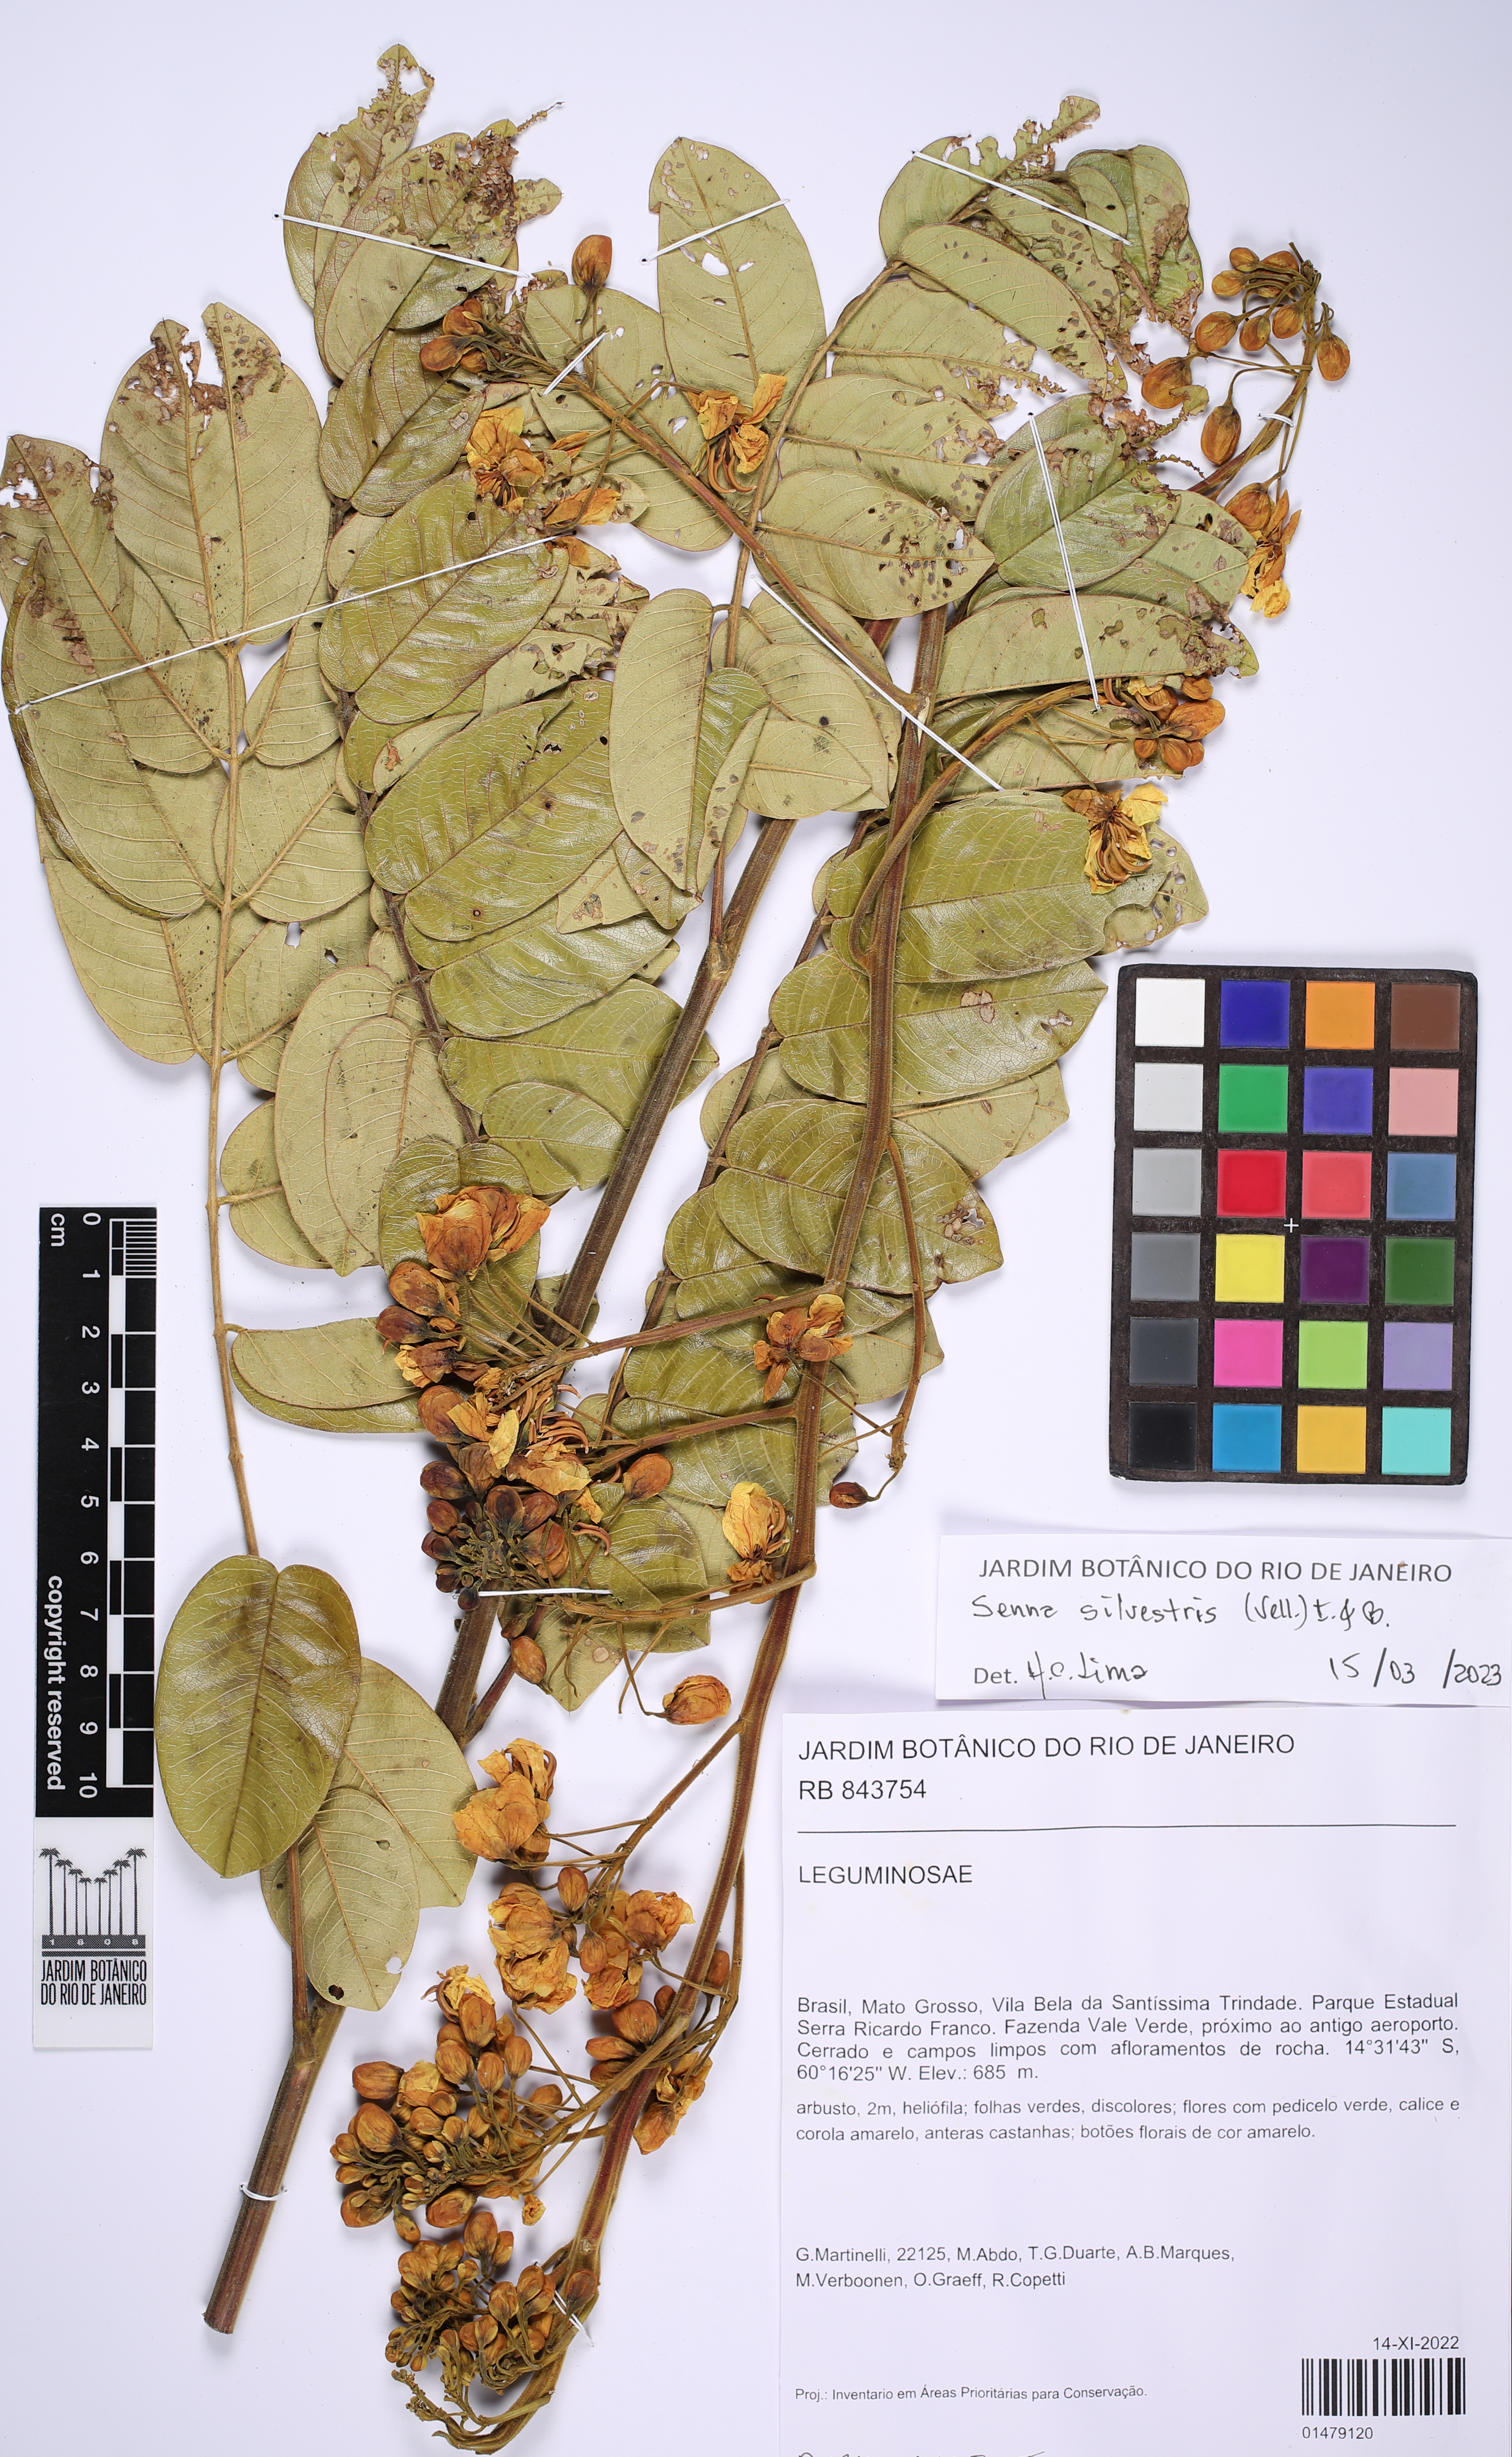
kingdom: Plantae
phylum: Tracheophyta
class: Magnoliopsida
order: Fabales
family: Fabaceae
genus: Senna
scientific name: Senna silvestris
